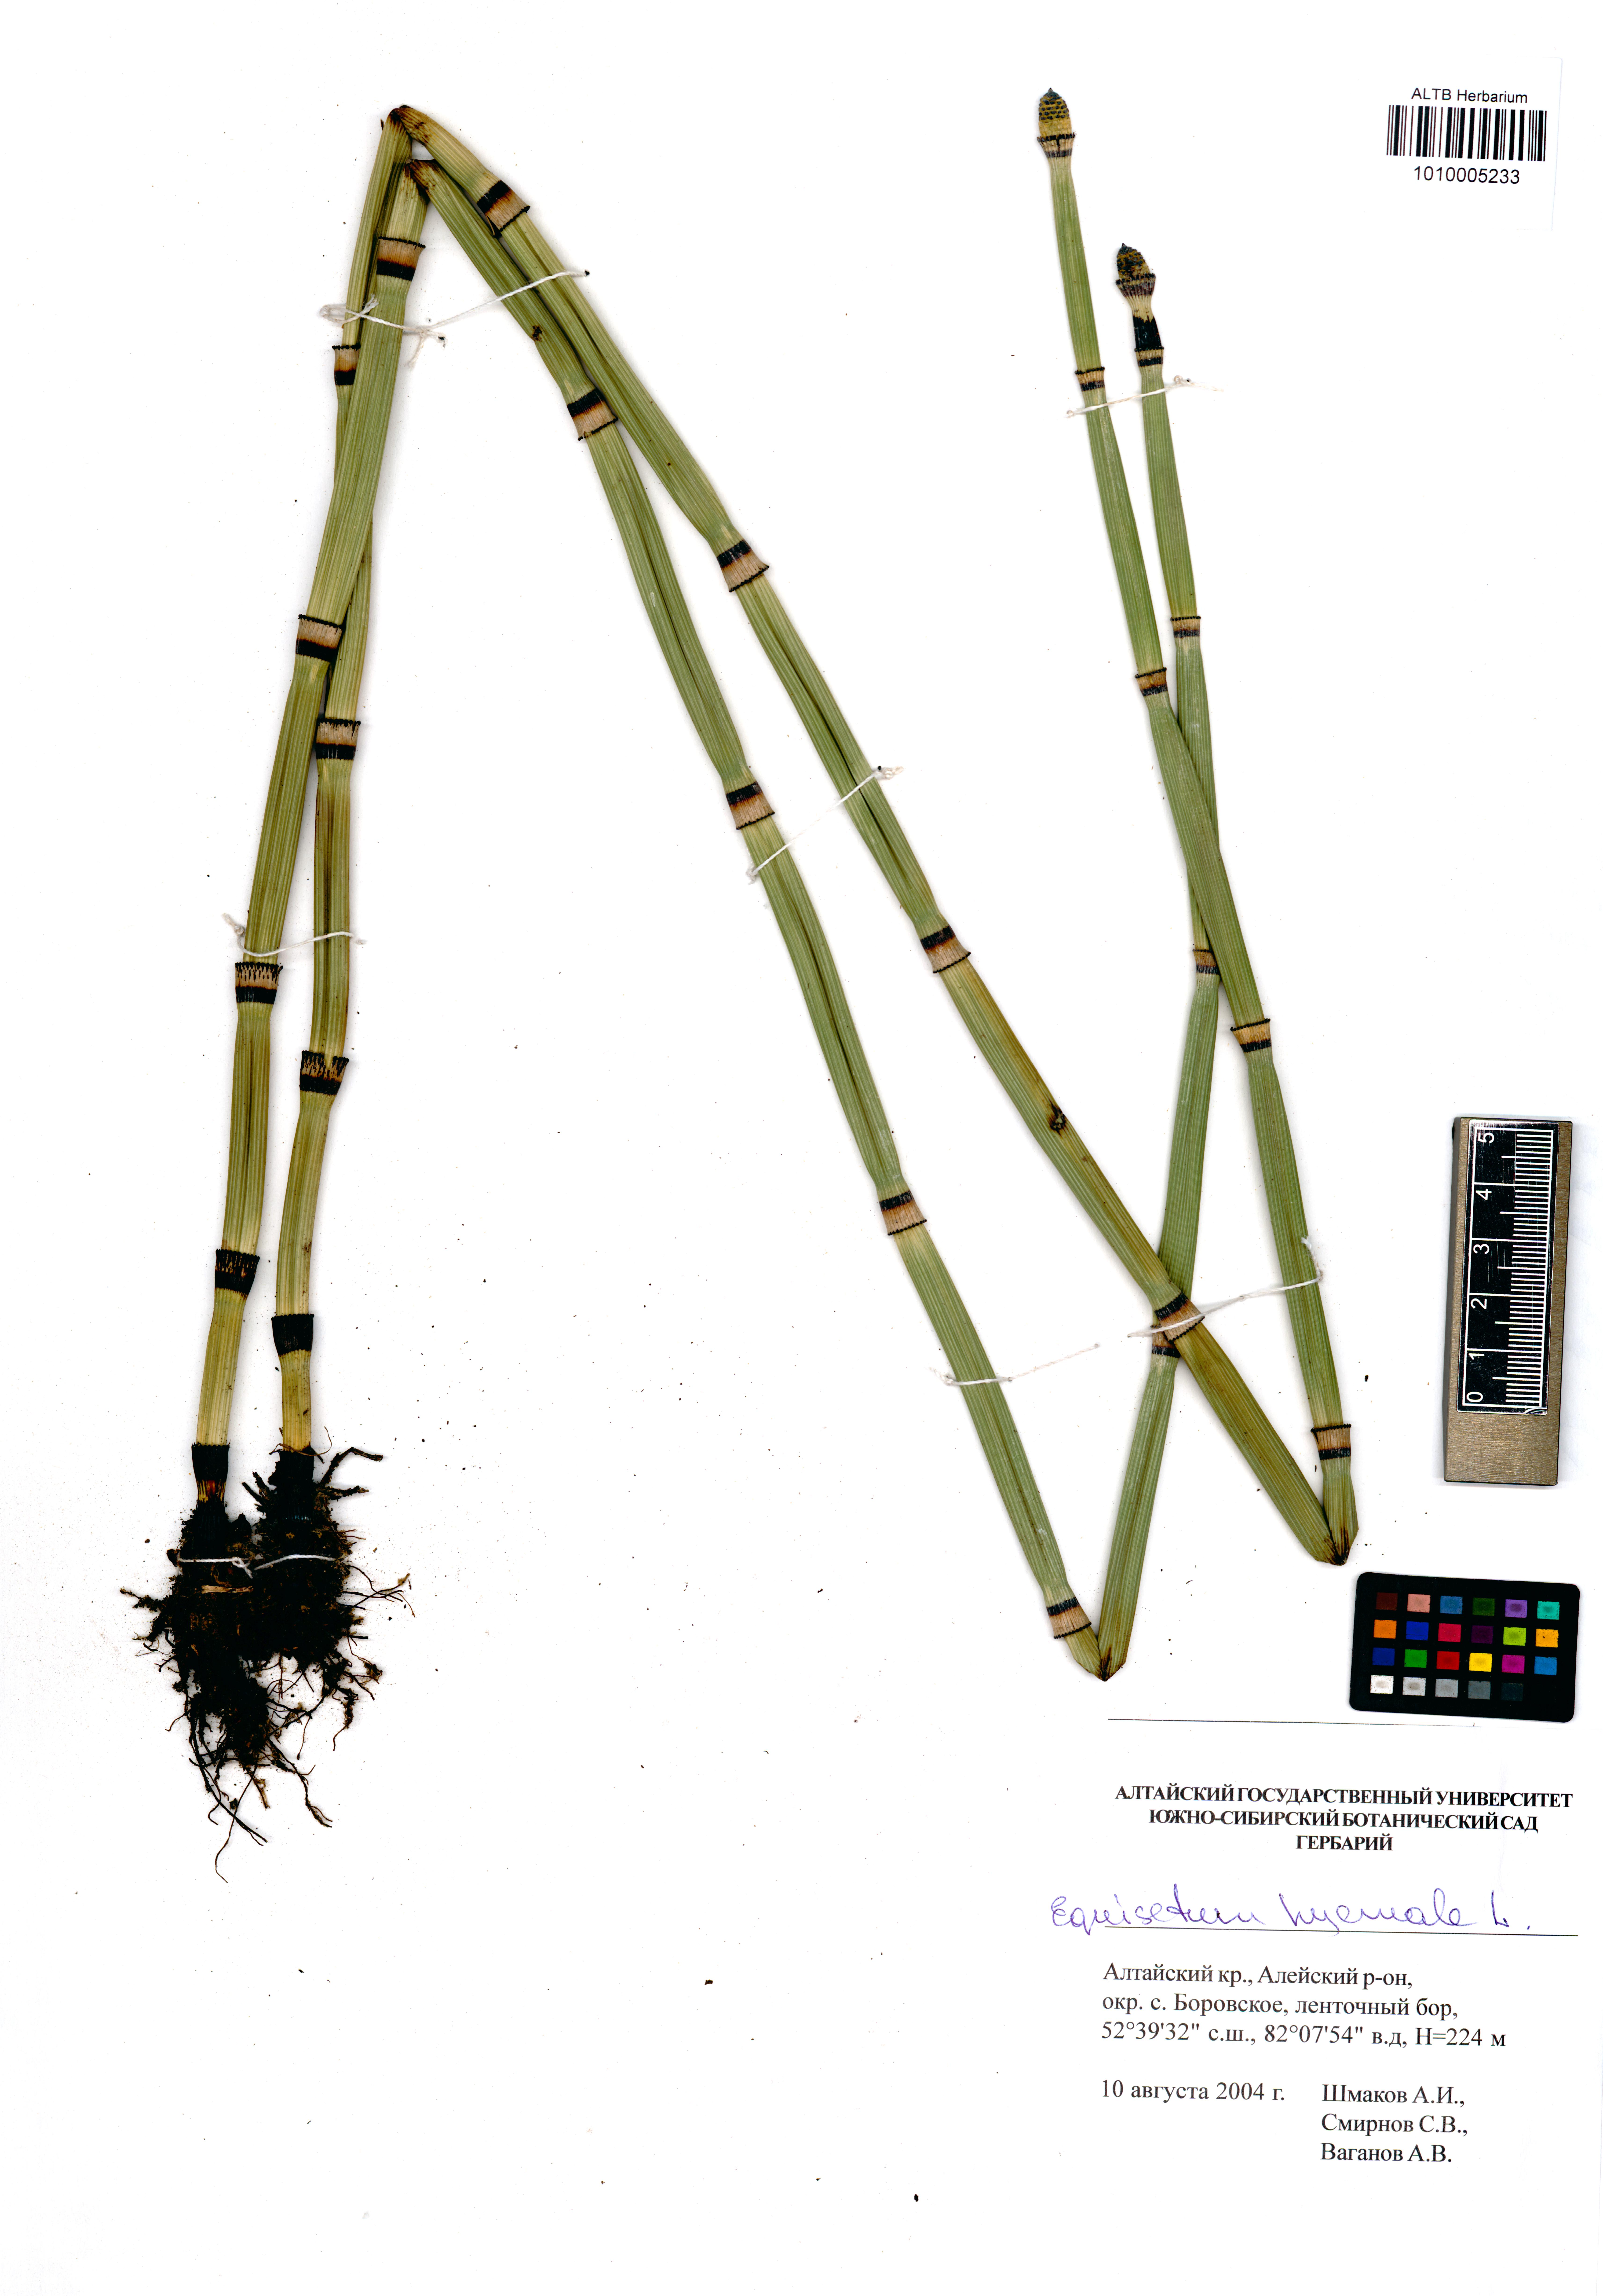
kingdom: Plantae
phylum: Tracheophyta
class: Polypodiopsida
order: Equisetales
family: Equisetaceae
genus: Equisetum
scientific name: Equisetum hyemale
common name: Rough horsetail
